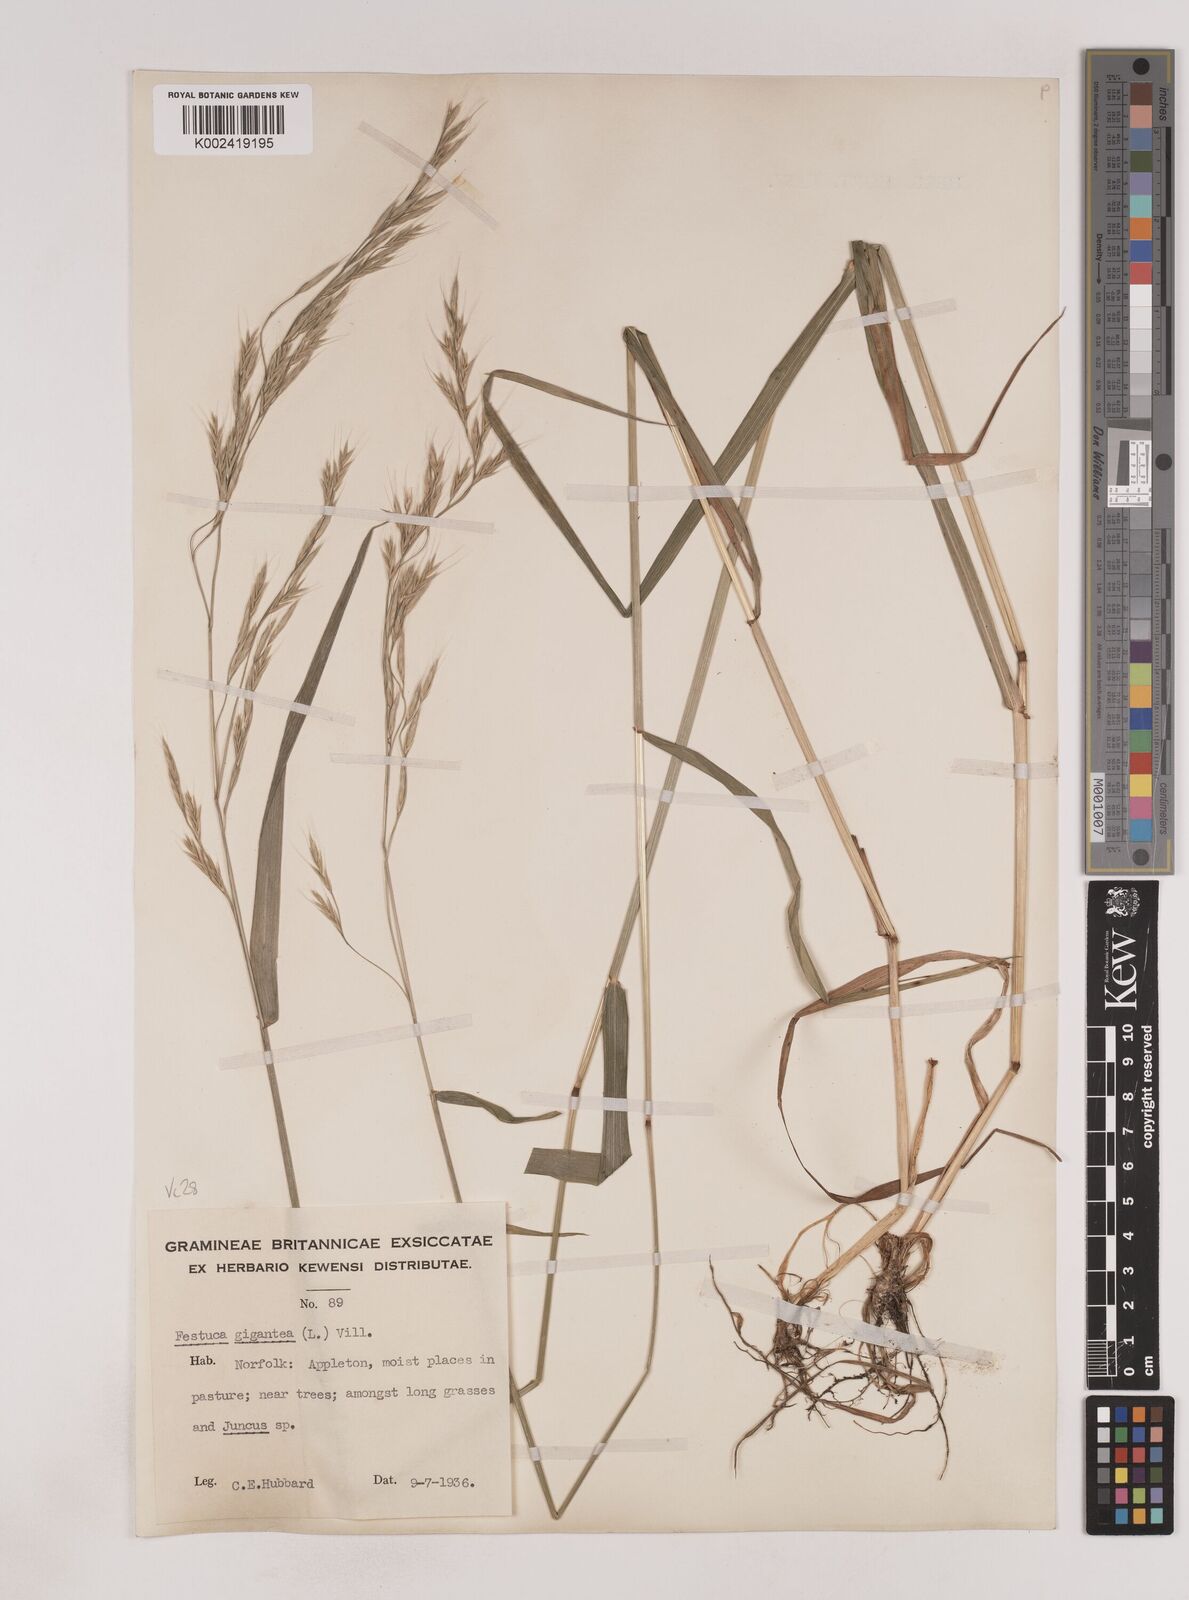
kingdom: Plantae
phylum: Tracheophyta
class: Liliopsida
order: Poales
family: Poaceae
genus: Lolium
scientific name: Lolium giganteum
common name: Giant fescue
